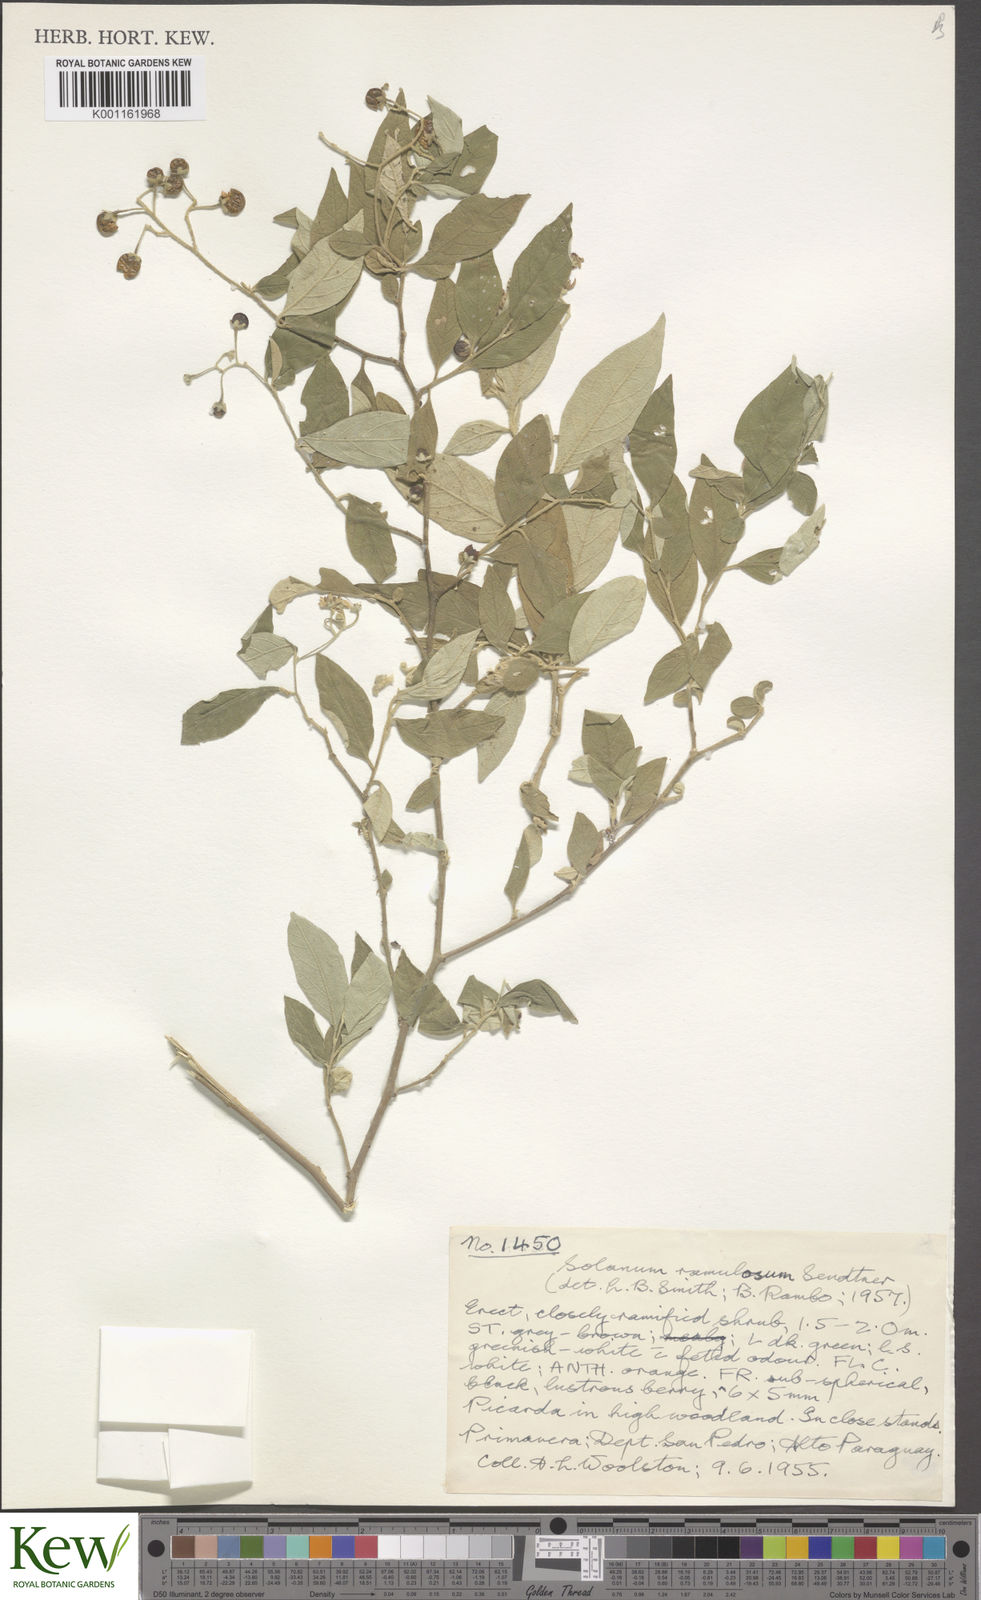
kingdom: Plantae
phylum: Tracheophyta
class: Magnoliopsida
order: Solanales
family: Solanaceae
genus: Solanum
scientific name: Solanum ramulosum
